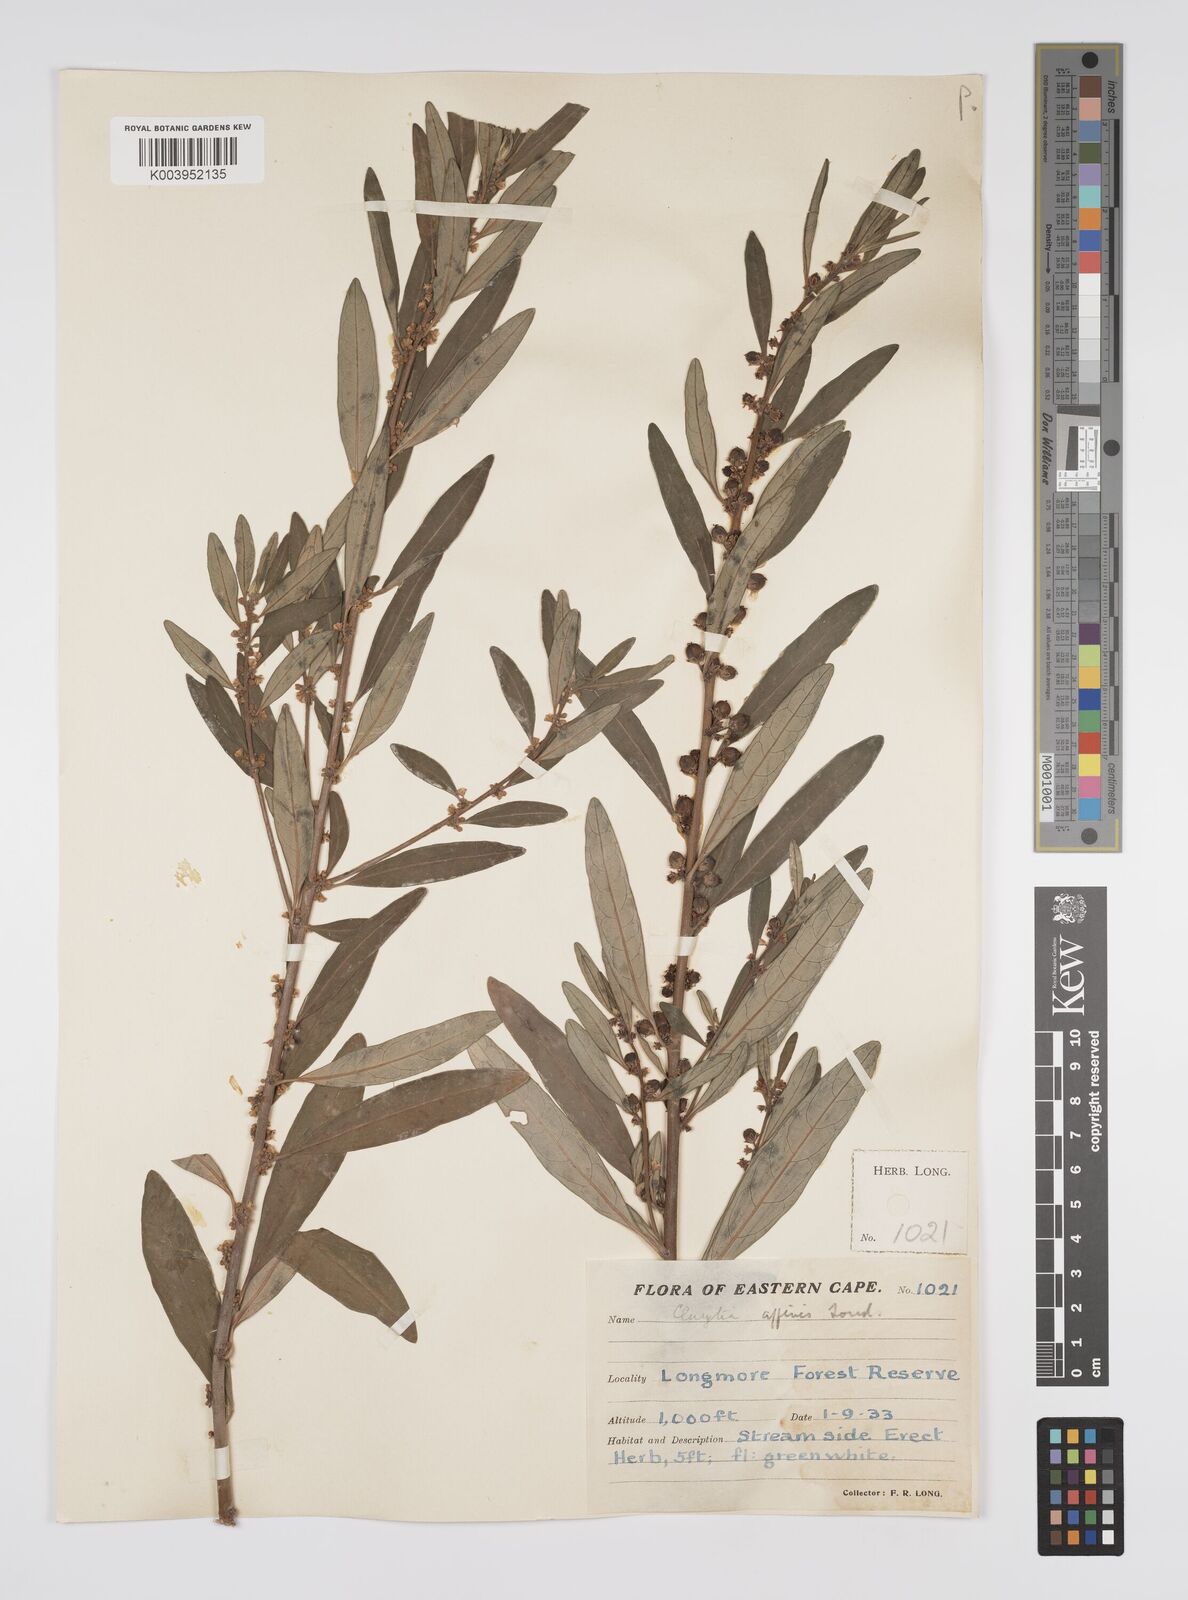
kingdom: Plantae
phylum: Tracheophyta
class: Magnoliopsida
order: Malpighiales
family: Peraceae
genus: Clutia
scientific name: Clutia affinis
